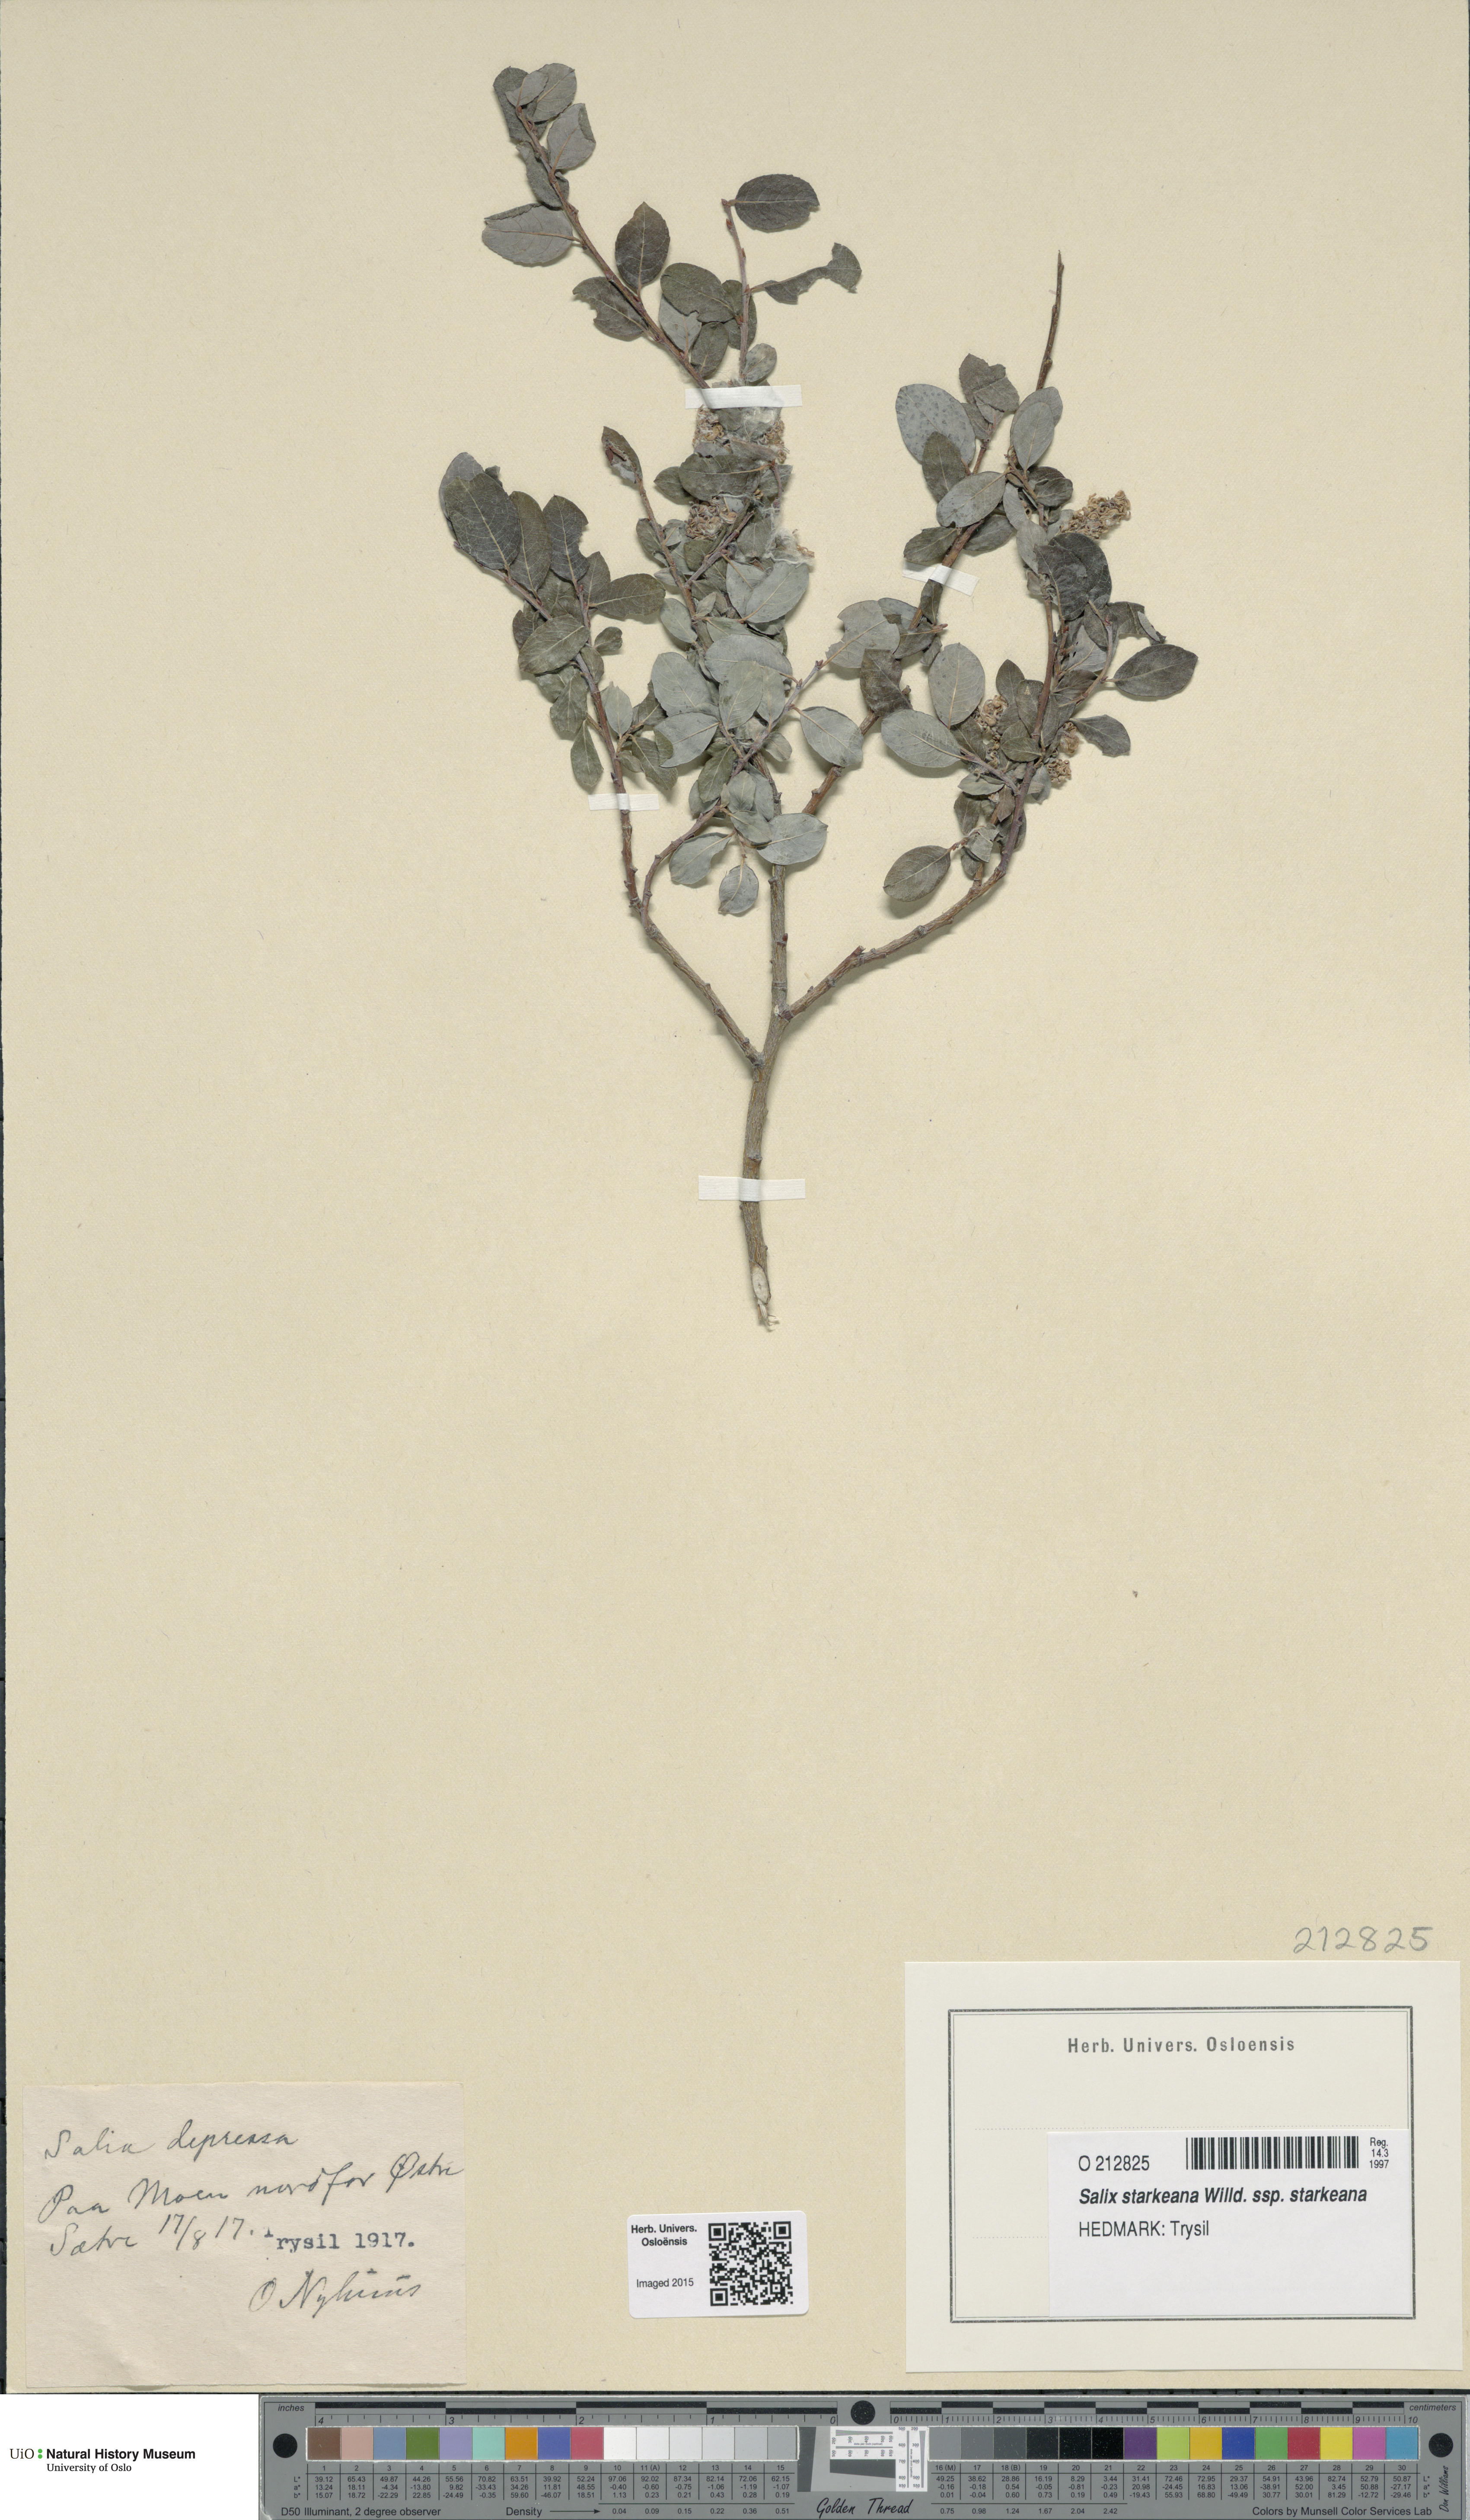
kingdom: Plantae
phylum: Tracheophyta
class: Magnoliopsida
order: Malpighiales
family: Salicaceae
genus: Salix
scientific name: Salix starkeana
